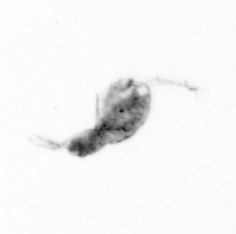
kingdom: Animalia
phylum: Arthropoda
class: Copepoda
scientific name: Copepoda
